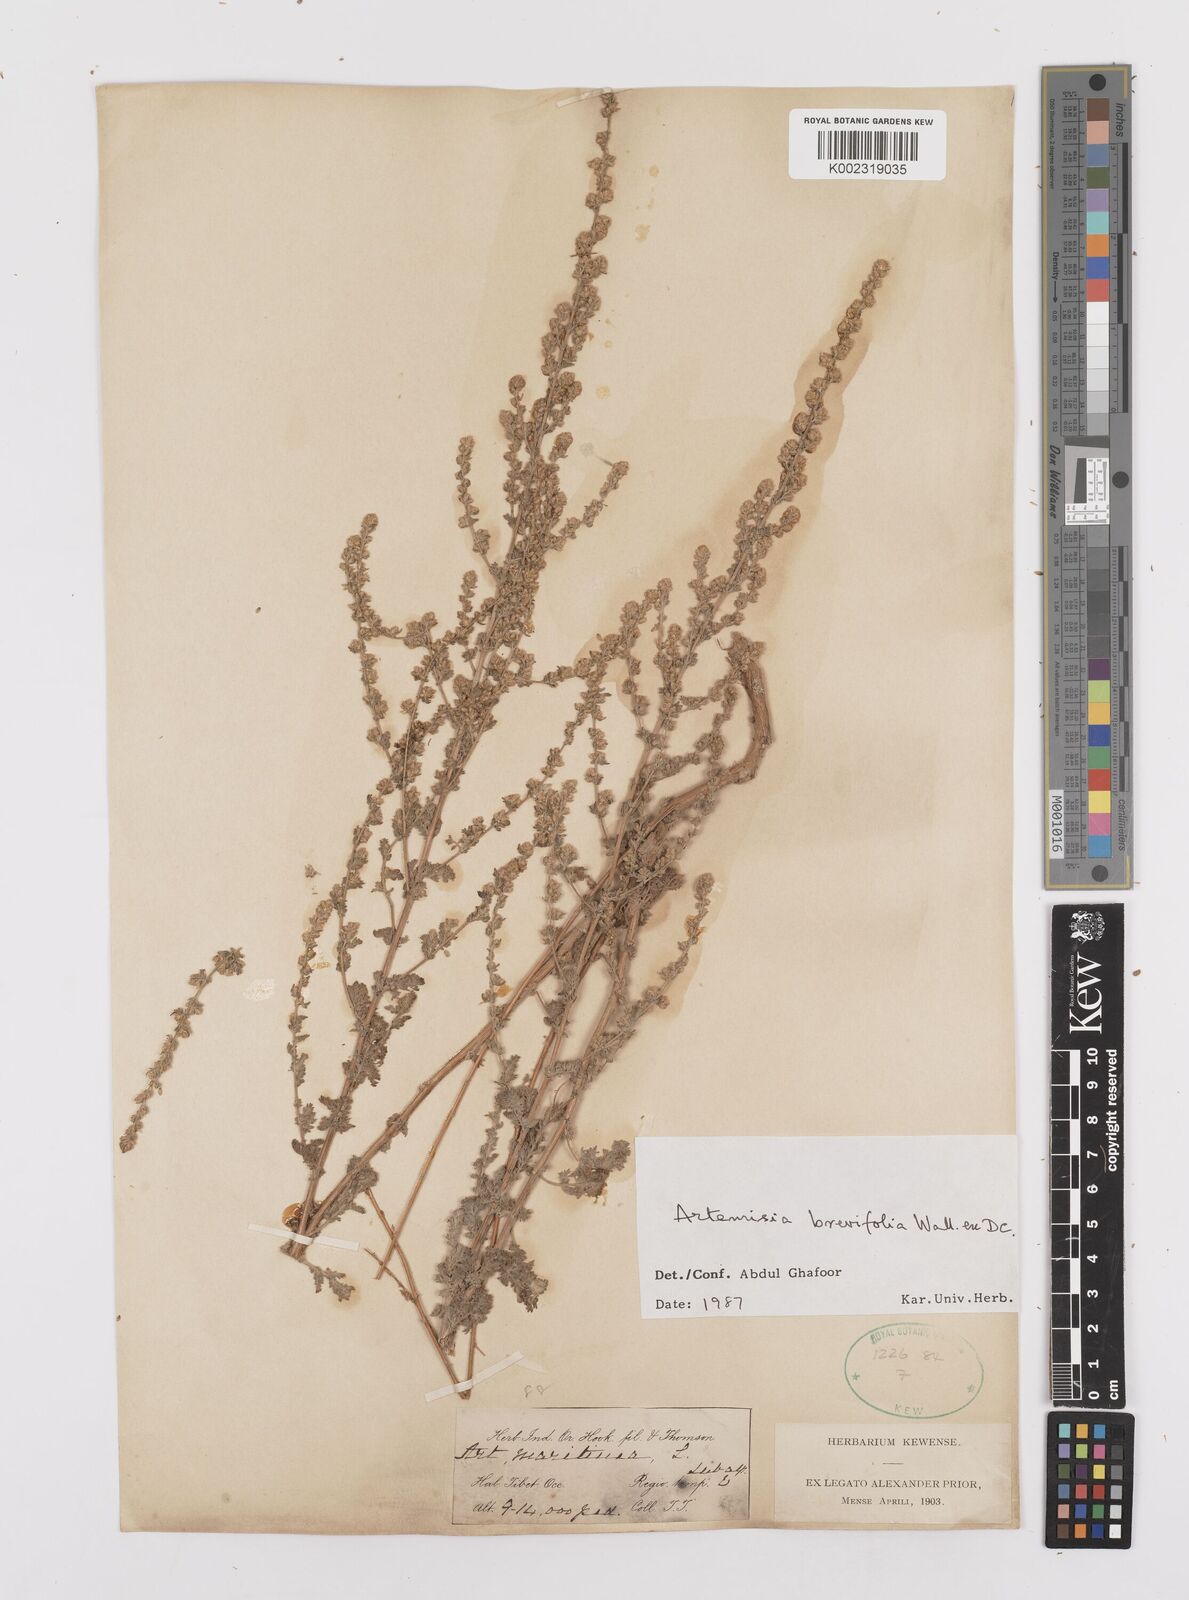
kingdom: Plantae
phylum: Tracheophyta
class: Magnoliopsida
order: Asterales
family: Asteraceae
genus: Artemisia
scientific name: Artemisia brevifolia
